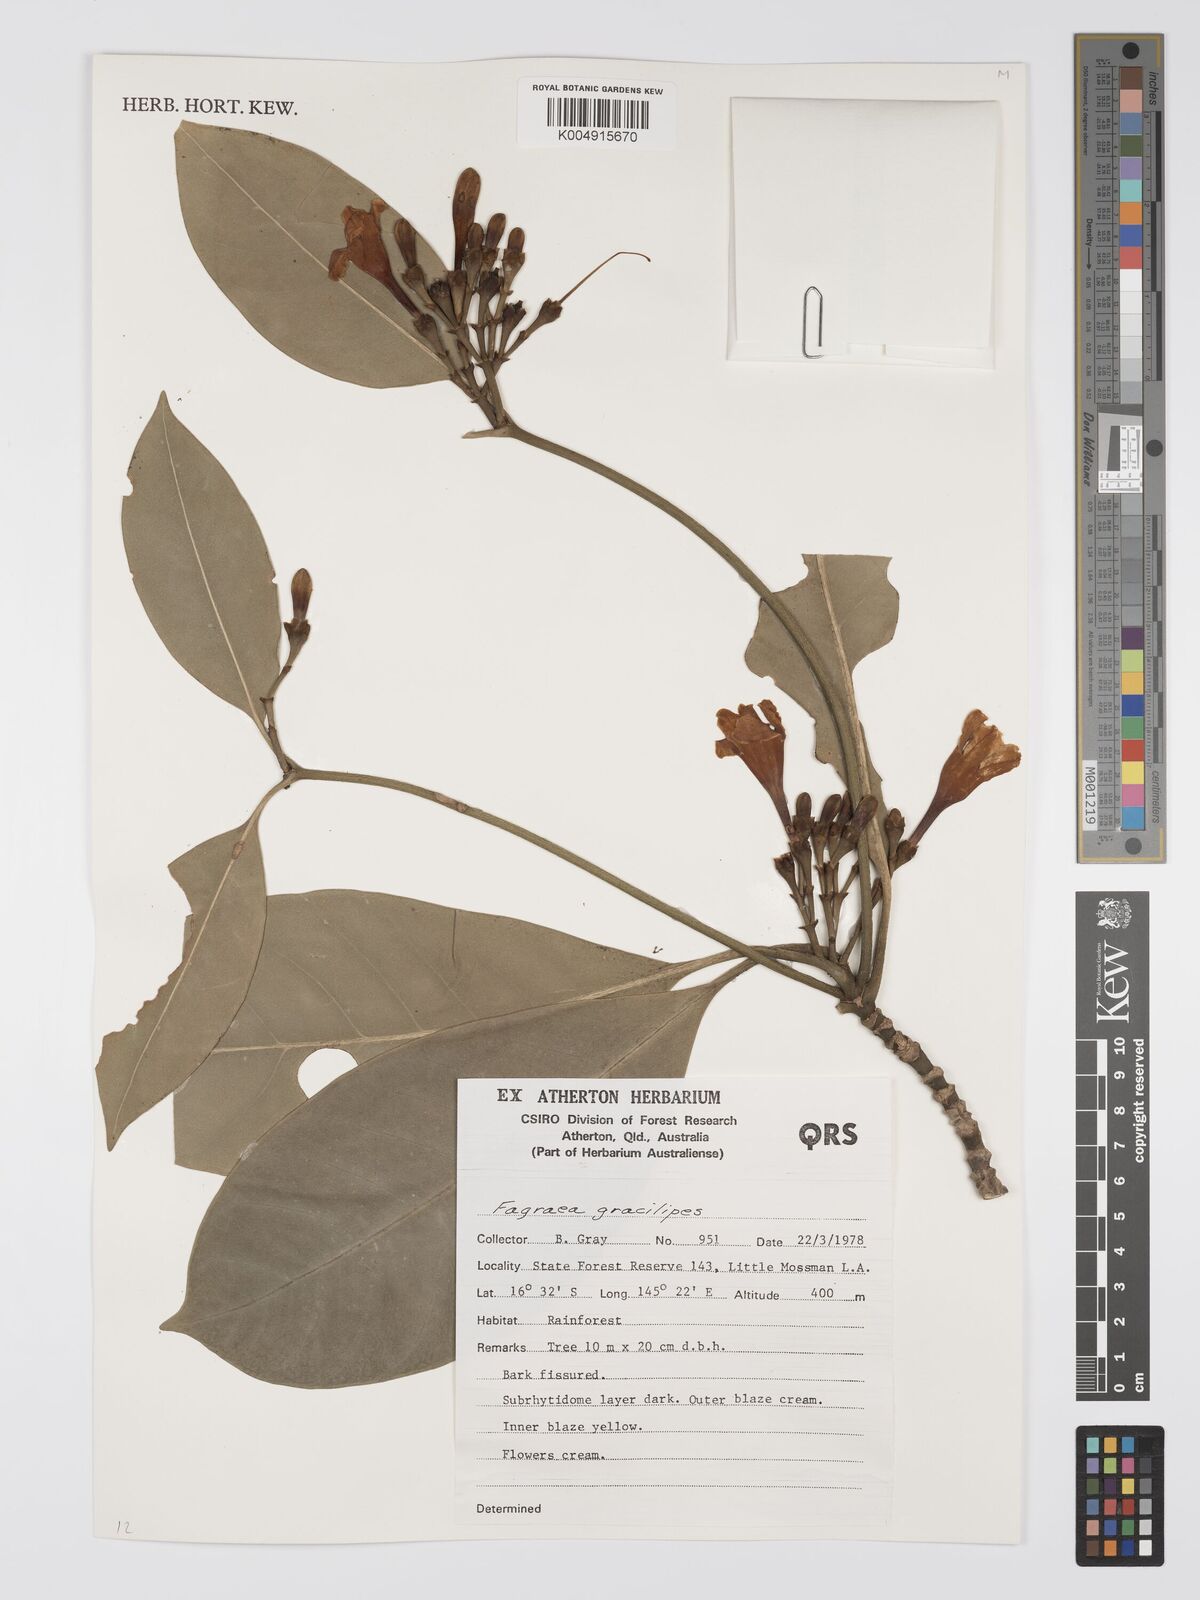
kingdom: Plantae
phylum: Tracheophyta
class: Magnoliopsida
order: Gentianales
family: Gentianaceae
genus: Fagraea
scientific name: Fagraea gracilipes
